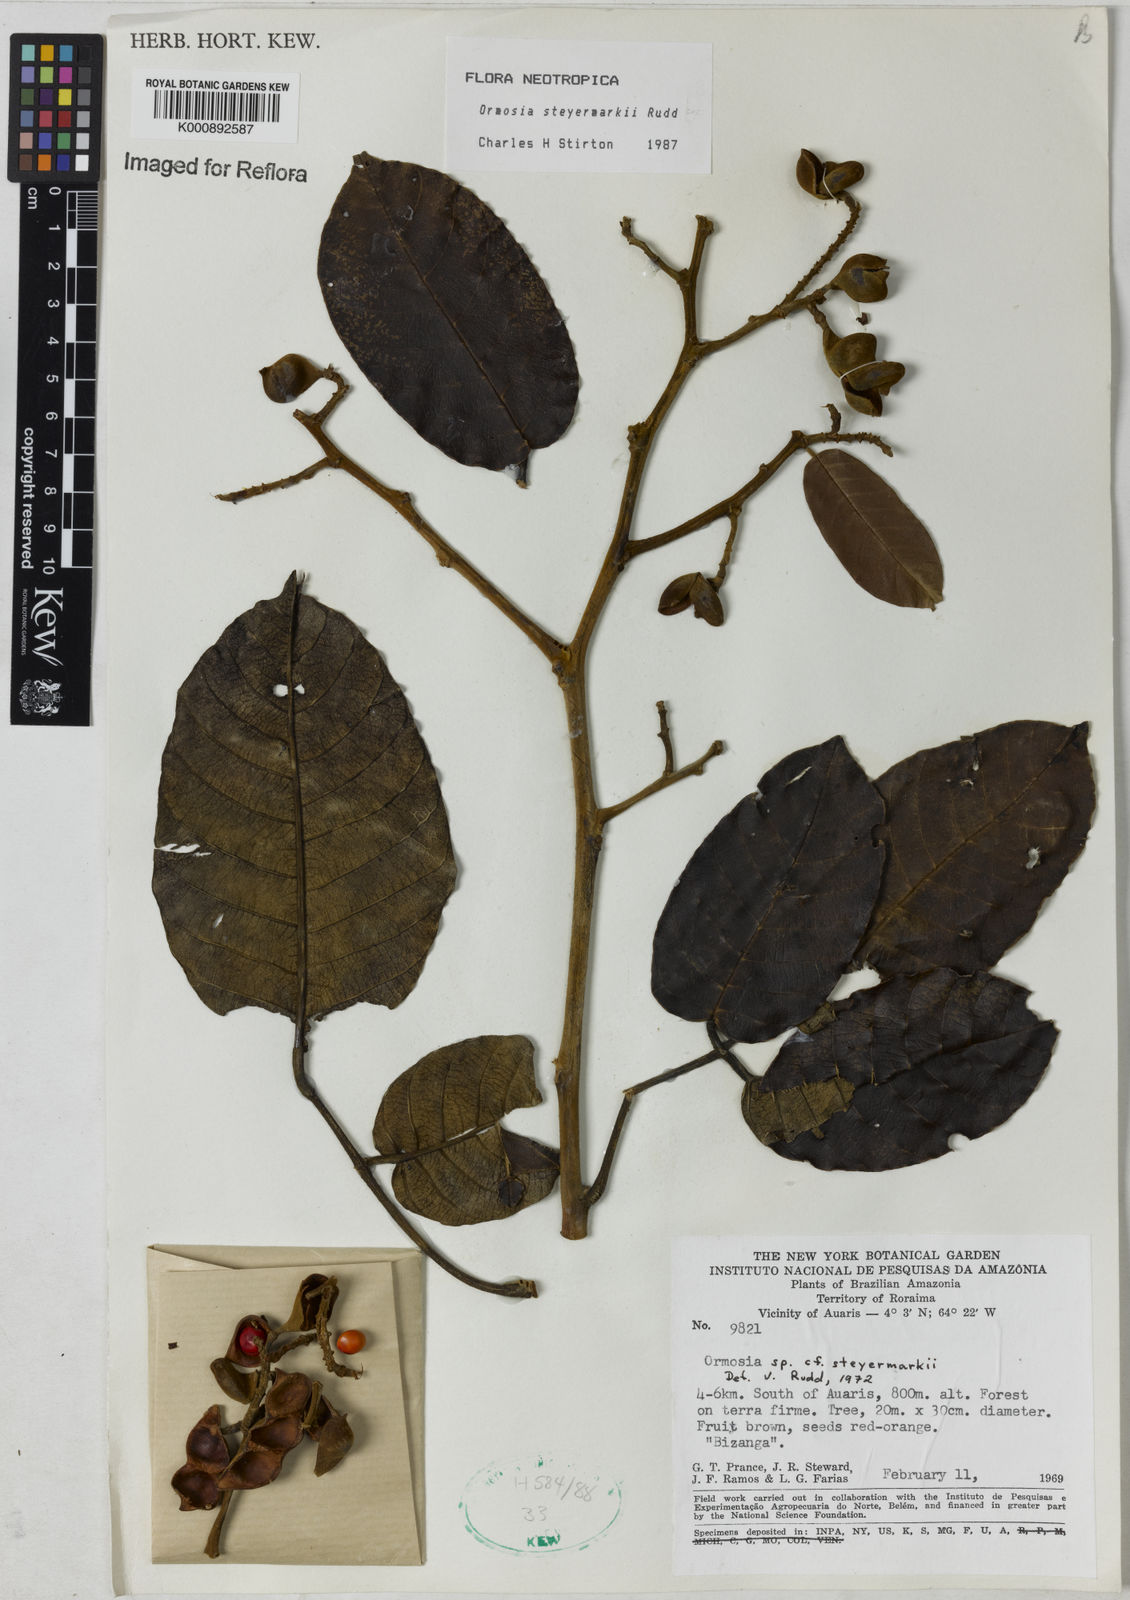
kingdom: Plantae
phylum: Tracheophyta
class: Magnoliopsida
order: Fabales
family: Fabaceae
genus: Ormosia
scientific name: Ormosia steyermarkii
